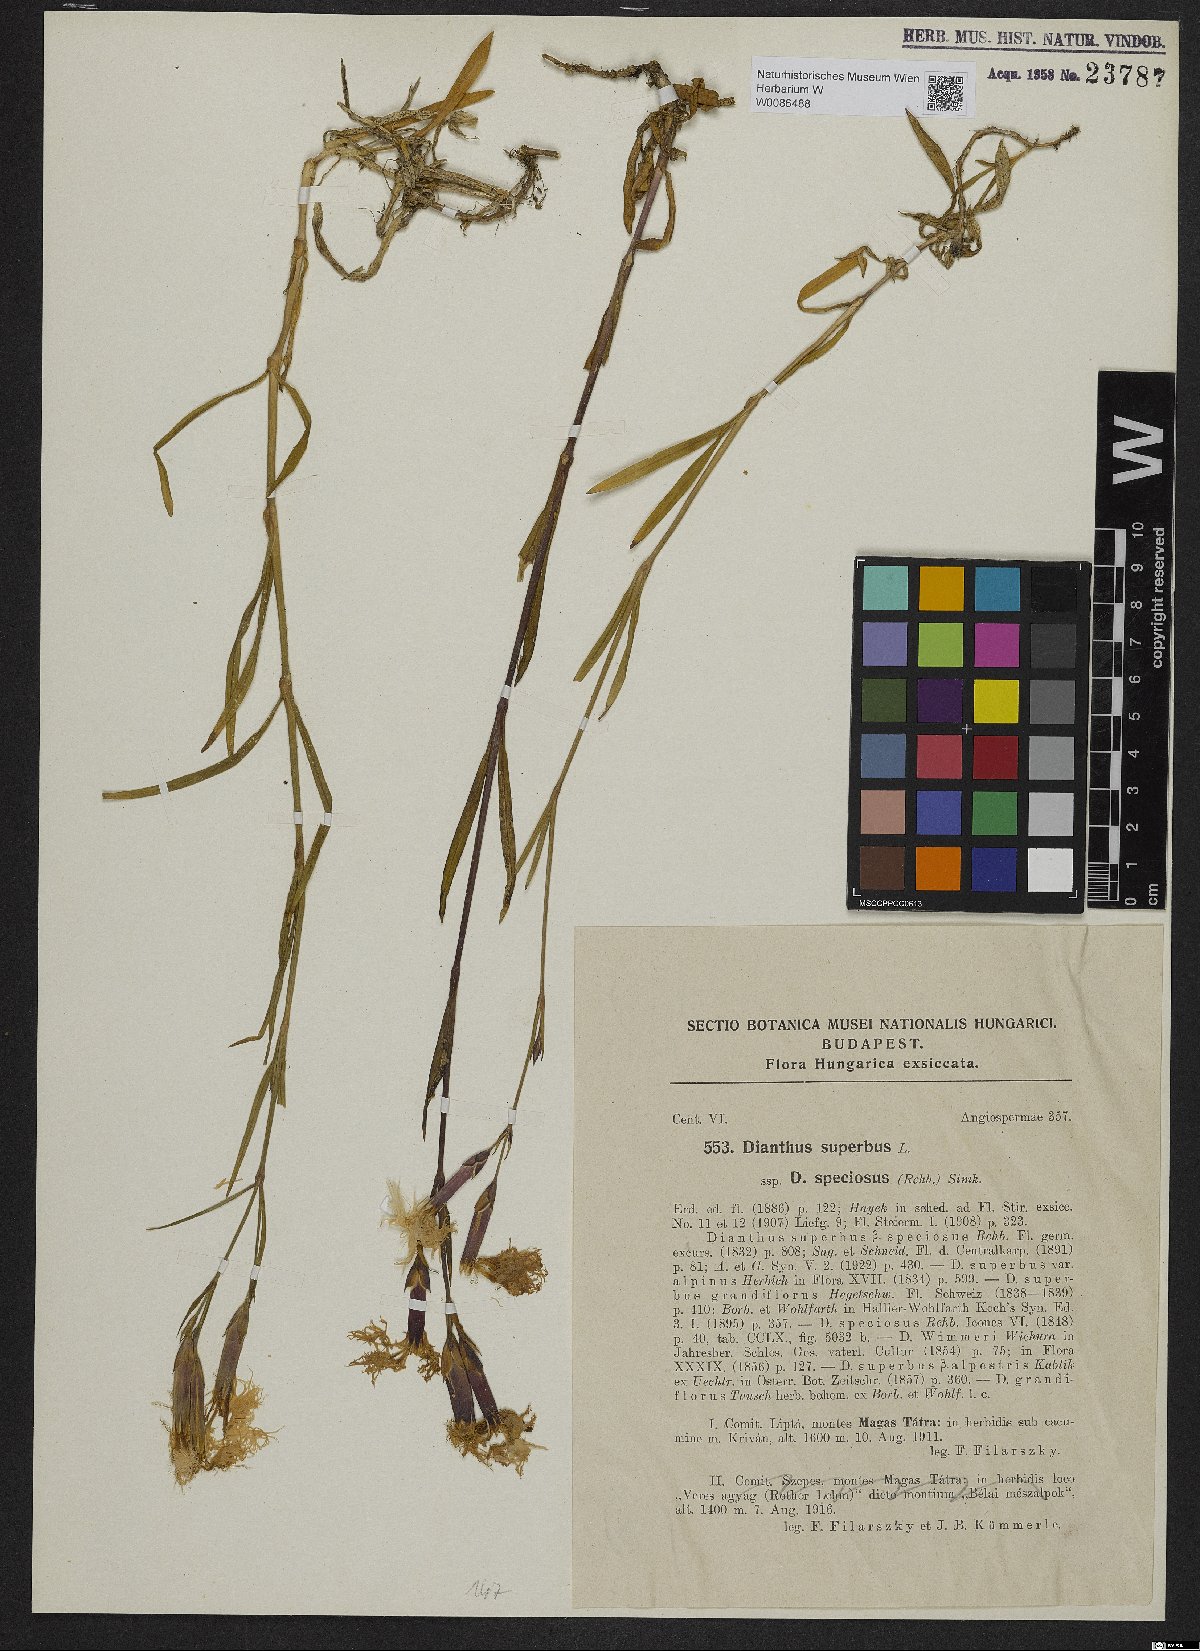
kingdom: Plantae
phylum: Tracheophyta
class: Magnoliopsida
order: Caryophyllales
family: Caryophyllaceae
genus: Dianthus
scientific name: Dianthus superbus
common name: Fringed pink
